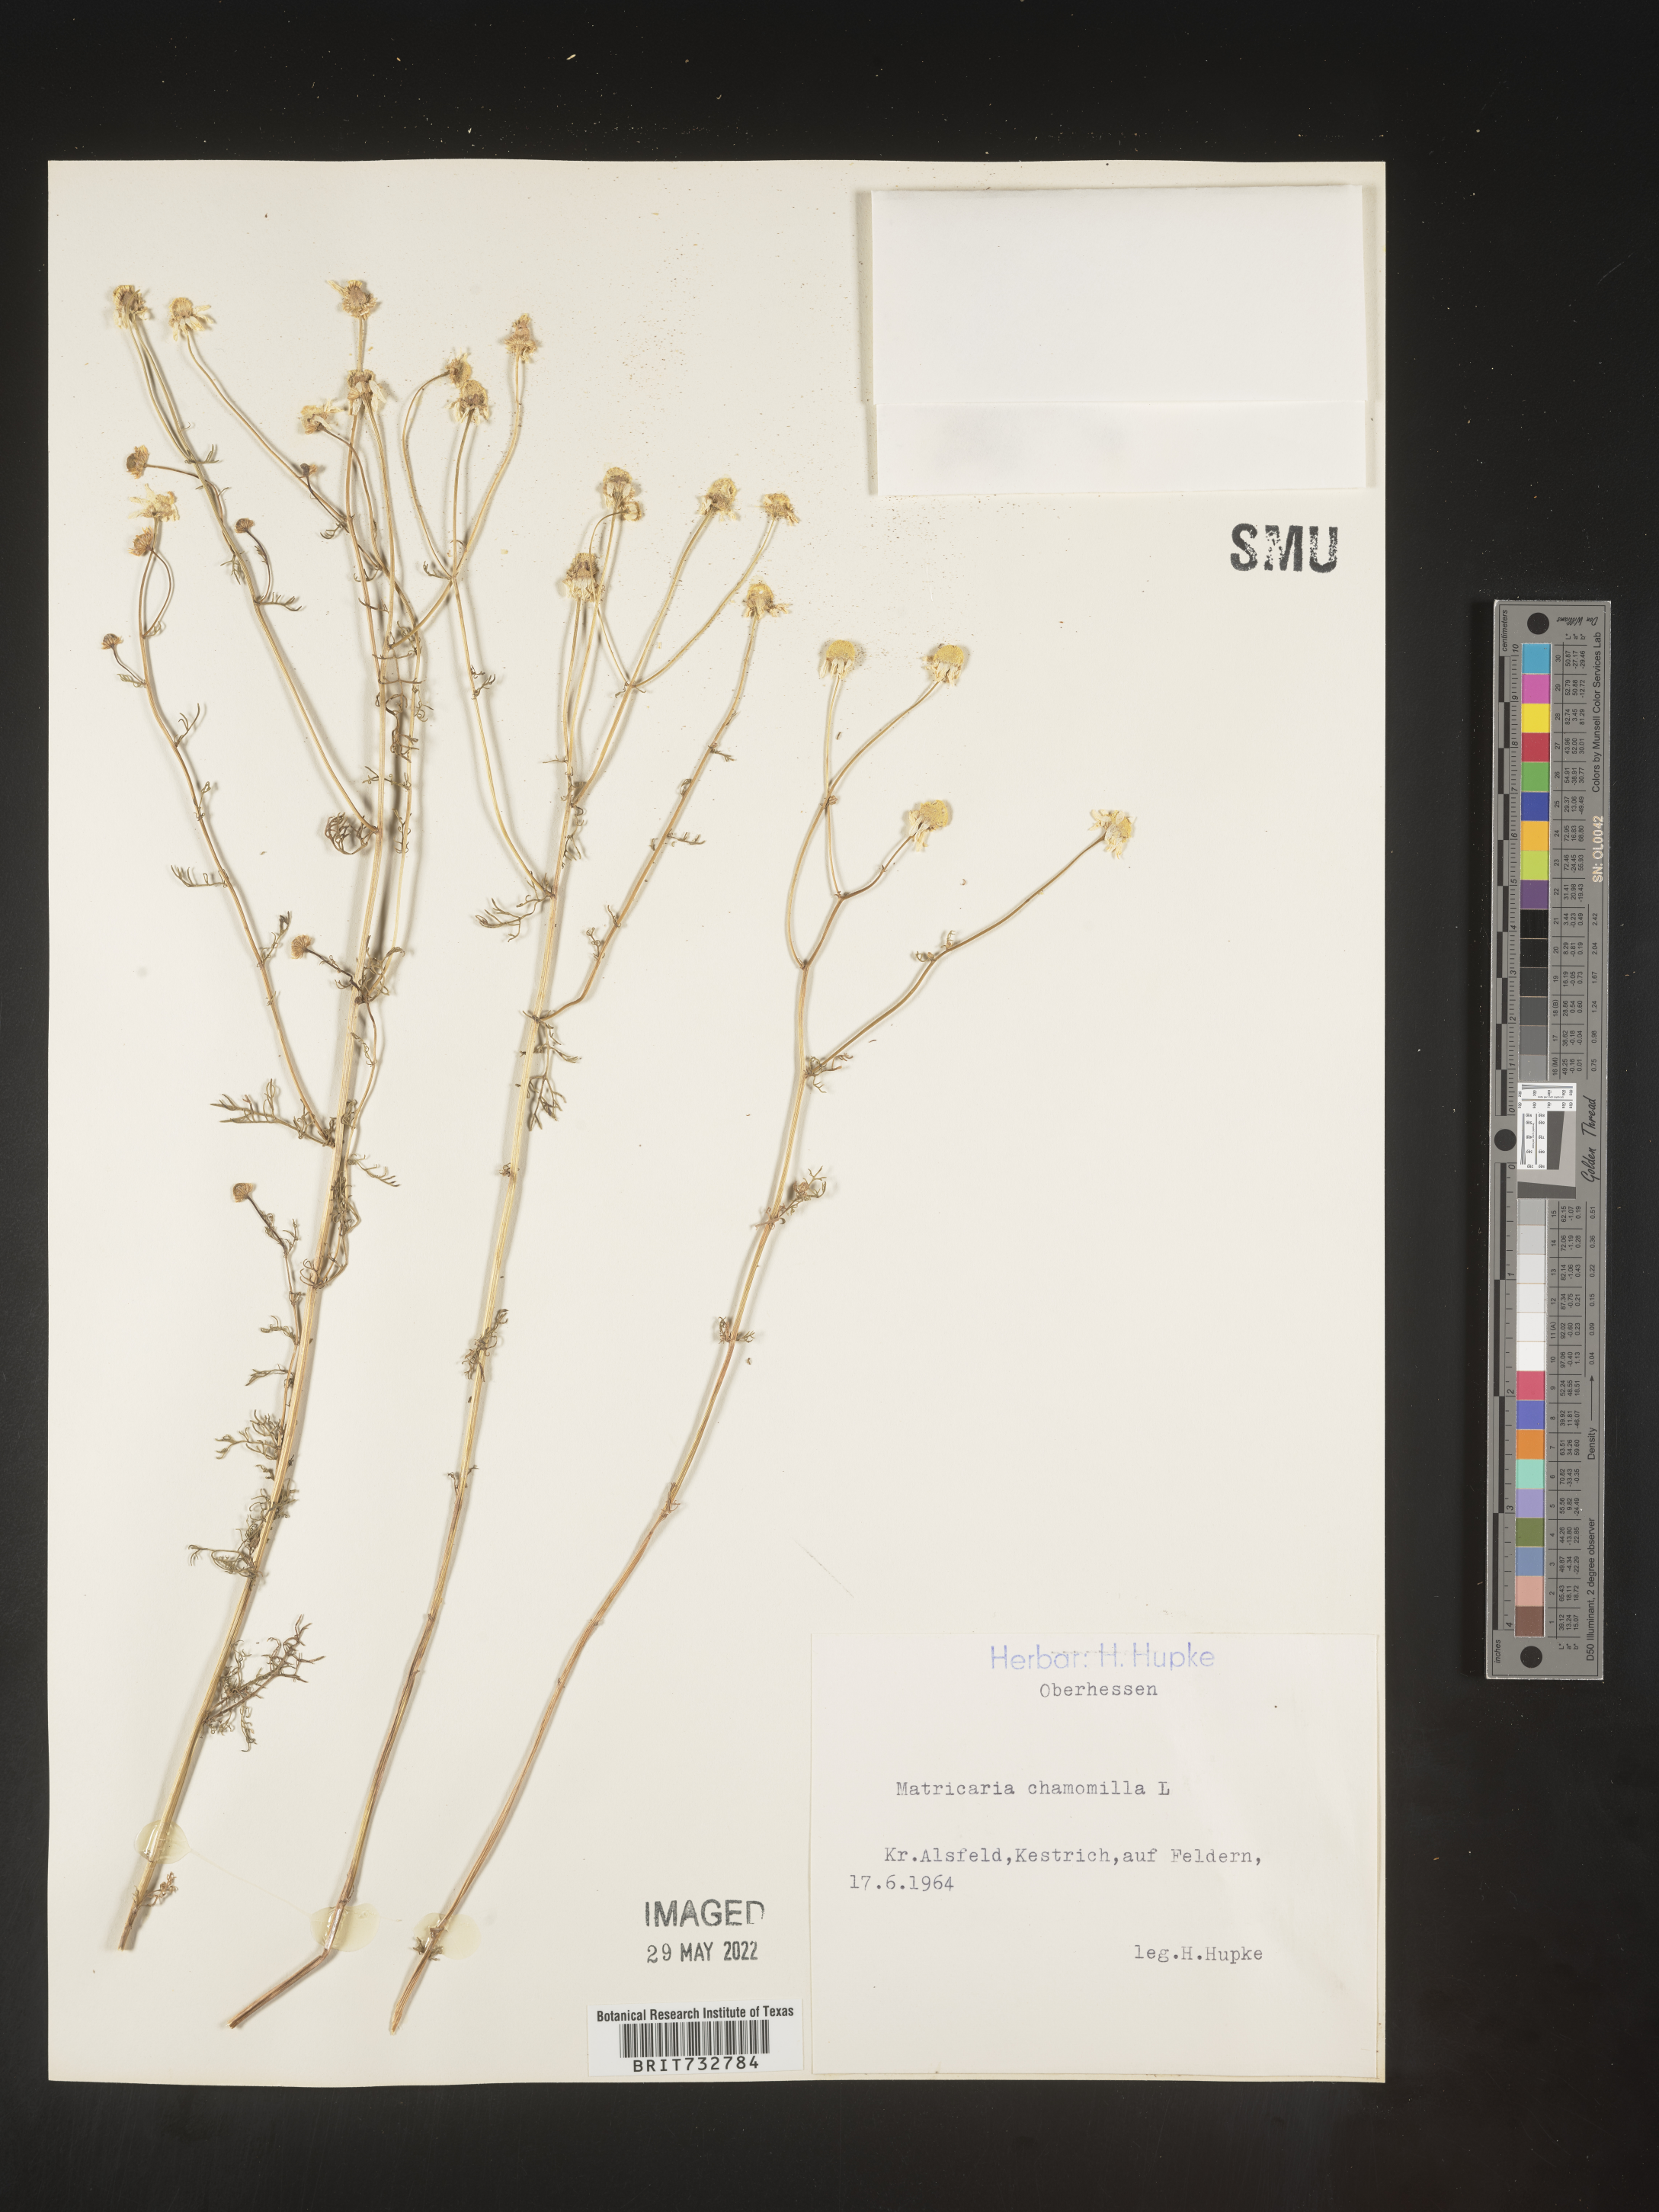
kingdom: Plantae
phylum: Tracheophyta
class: Magnoliopsida
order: Asterales
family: Asteraceae
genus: Matricaria
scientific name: Matricaria
